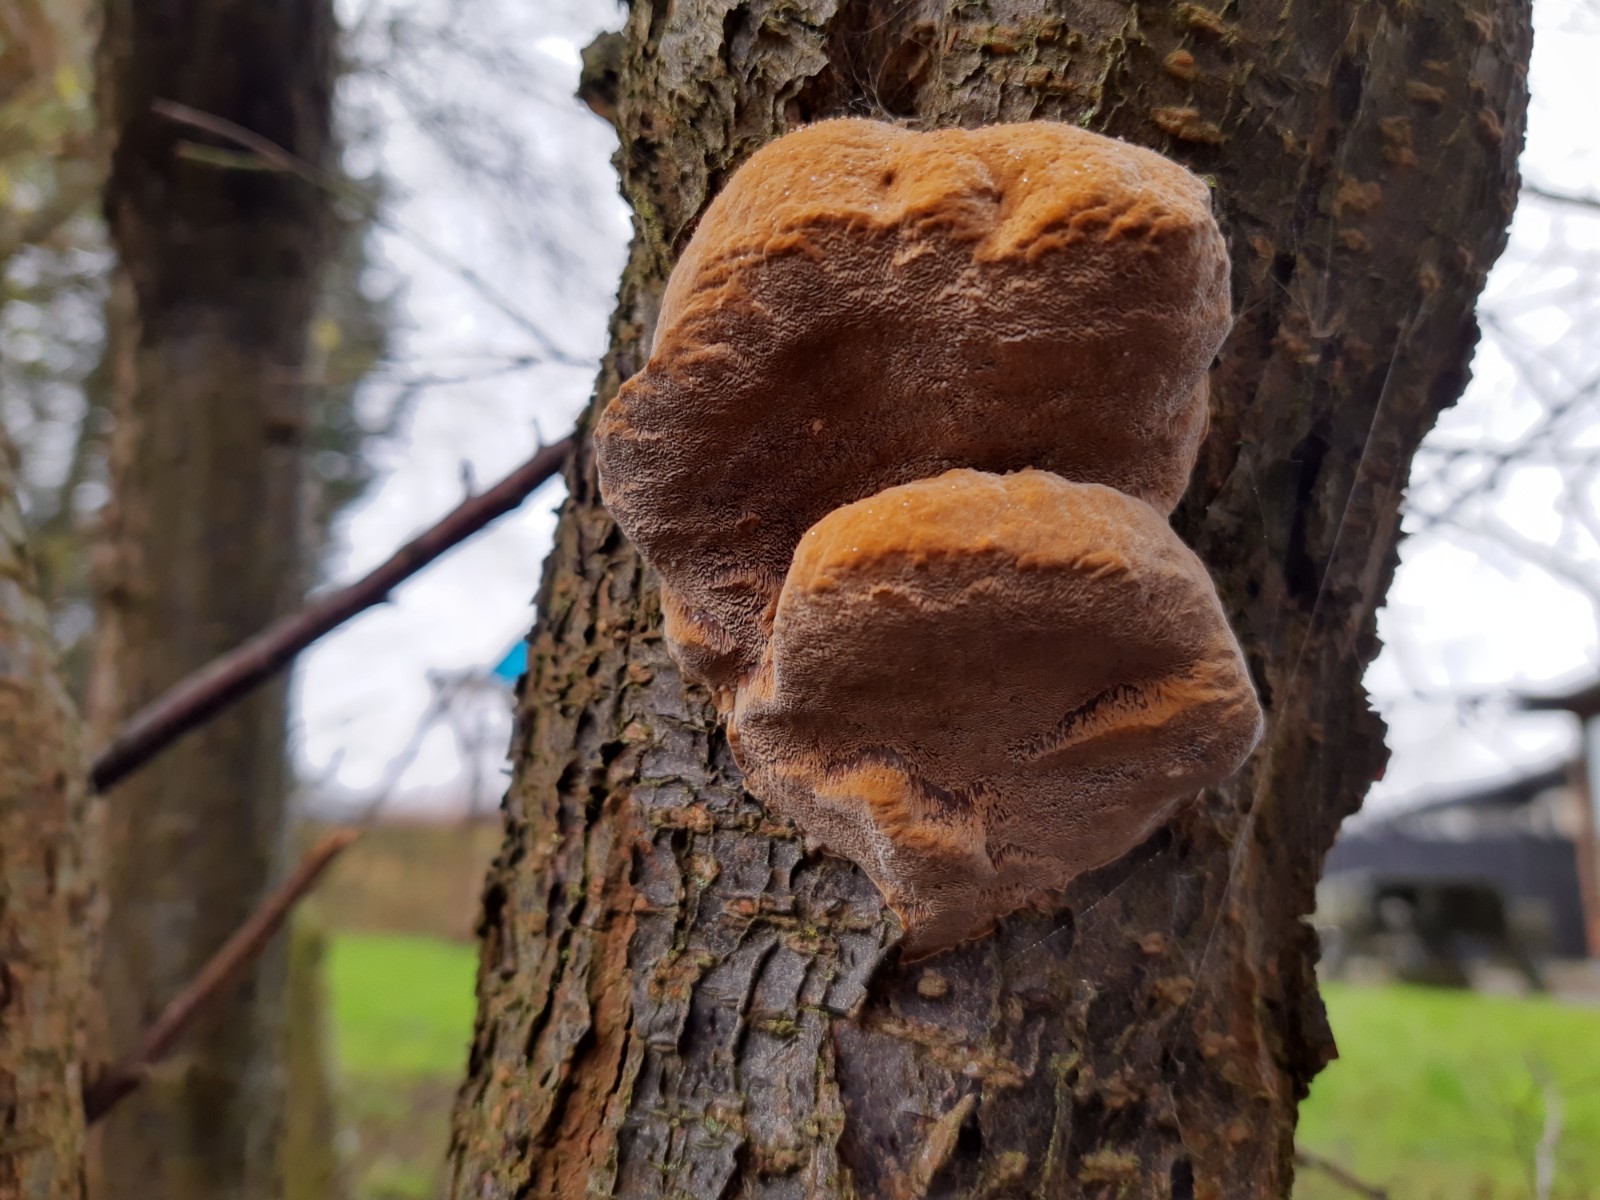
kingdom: Fungi
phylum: Basidiomycota
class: Agaricomycetes
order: Hymenochaetales
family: Hymenochaetaceae
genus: Phellinus
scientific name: Phellinus pomaceus
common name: blomme-ildporesvamp
